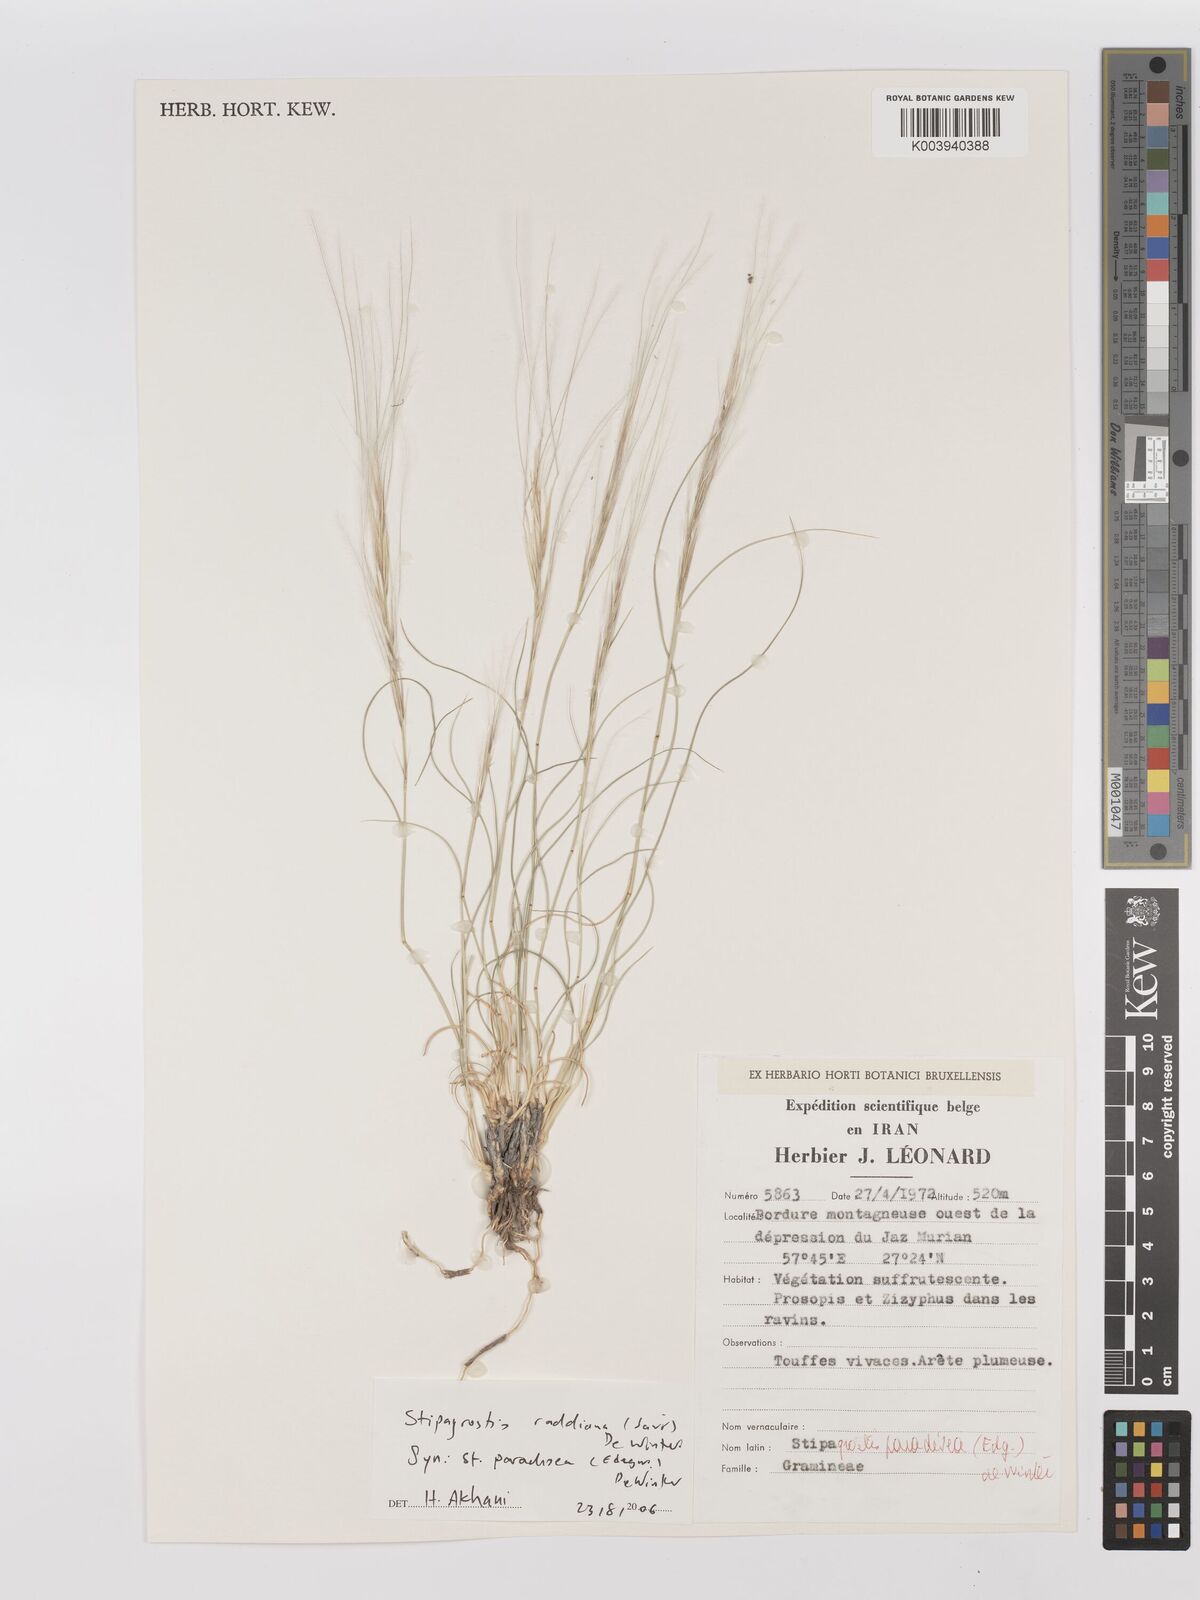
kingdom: Plantae
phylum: Tracheophyta
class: Liliopsida
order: Poales
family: Poaceae
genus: Stipagrostis
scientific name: Stipagrostis paradisea
